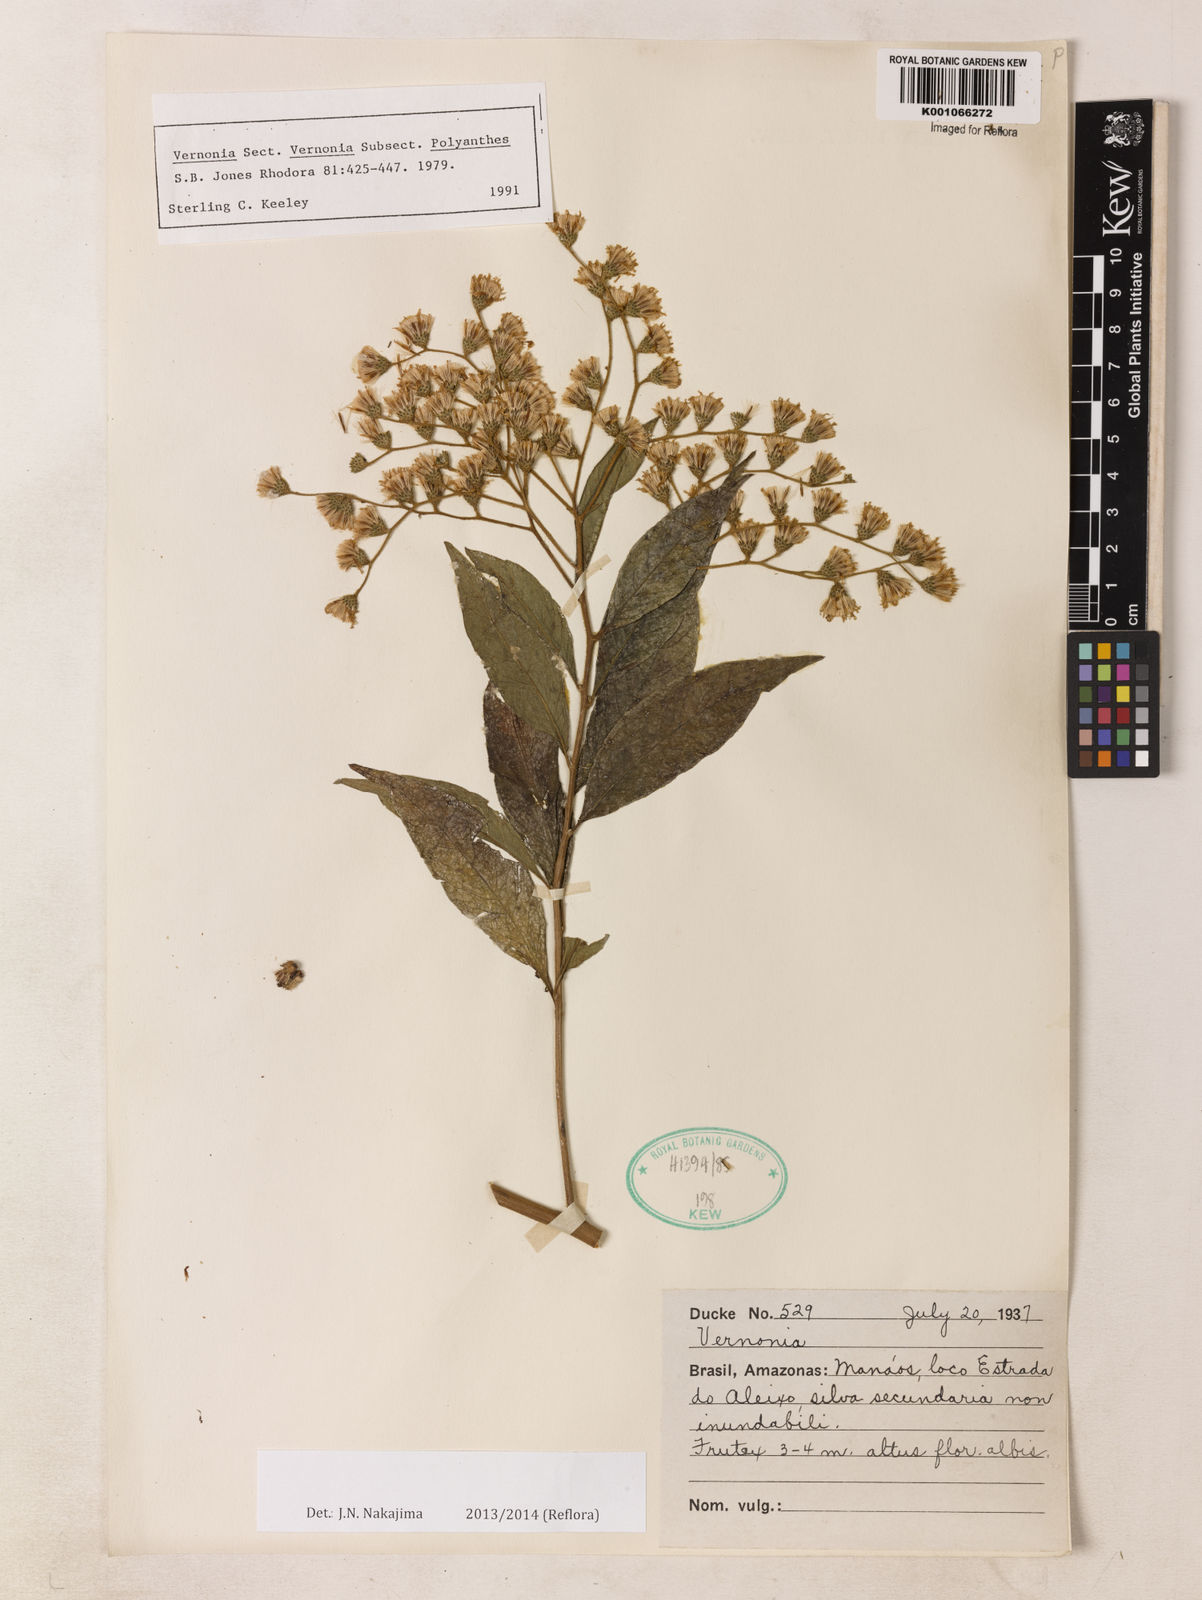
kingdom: Plantae
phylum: Tracheophyta
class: Magnoliopsida
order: Asterales
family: Asteraceae
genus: Vernonia
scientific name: Vernonia
